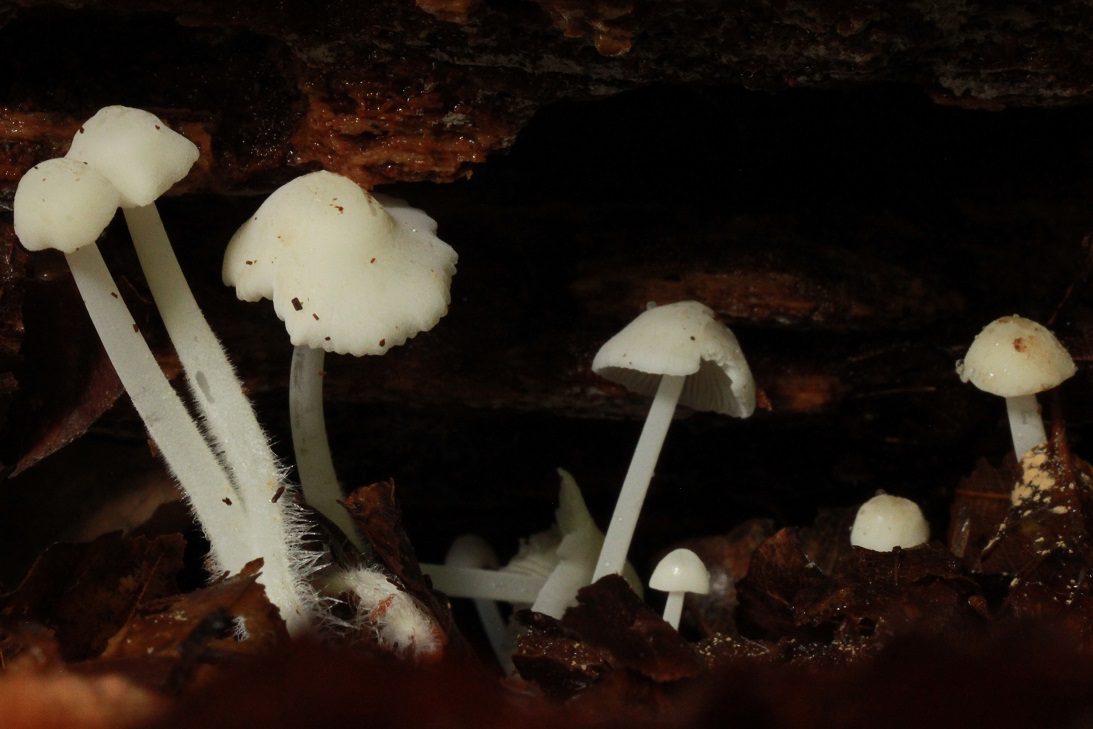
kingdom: Fungi
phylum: Basidiomycota
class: Agaricomycetes
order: Agaricales
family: Mycenaceae
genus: Hemimycena
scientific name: Hemimycena cucullata
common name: tætbladet huesvamp
